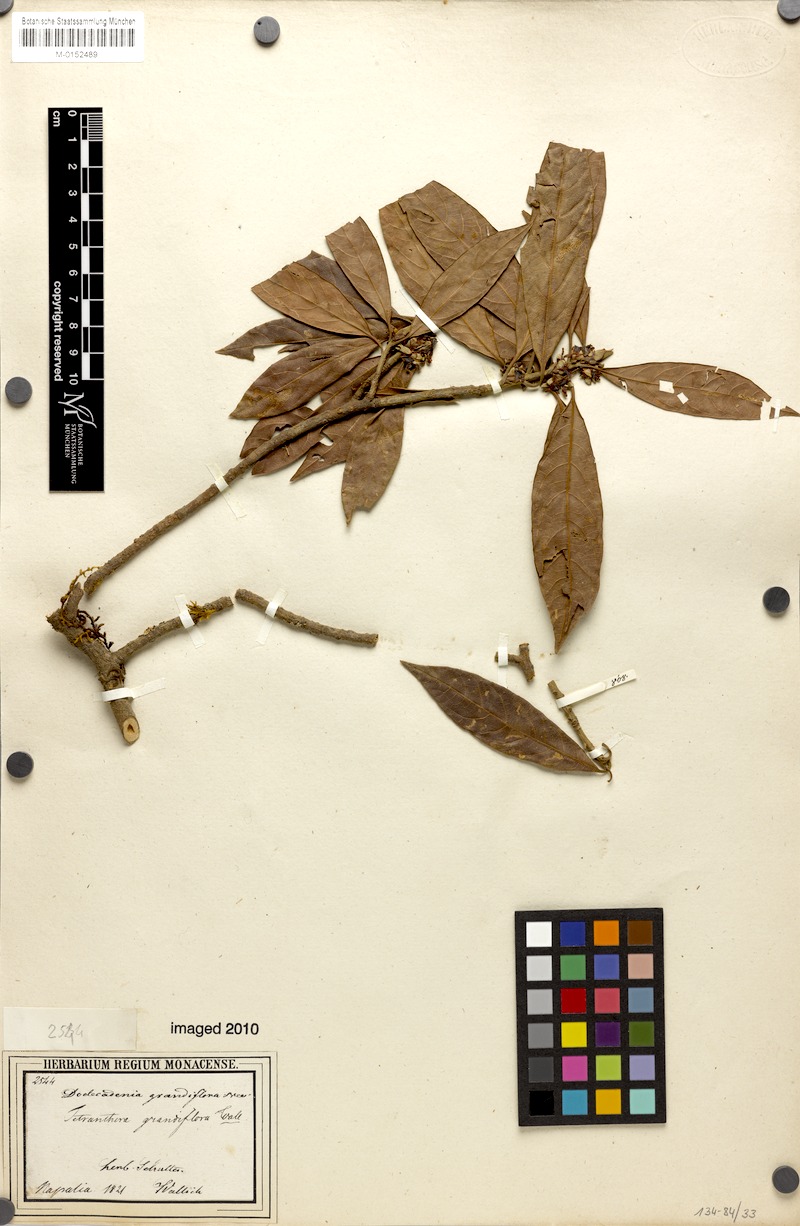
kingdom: Plantae
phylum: Tracheophyta
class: Magnoliopsida
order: Laurales
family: Lauraceae
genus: Dodecadenia
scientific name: Dodecadenia grandiflora
